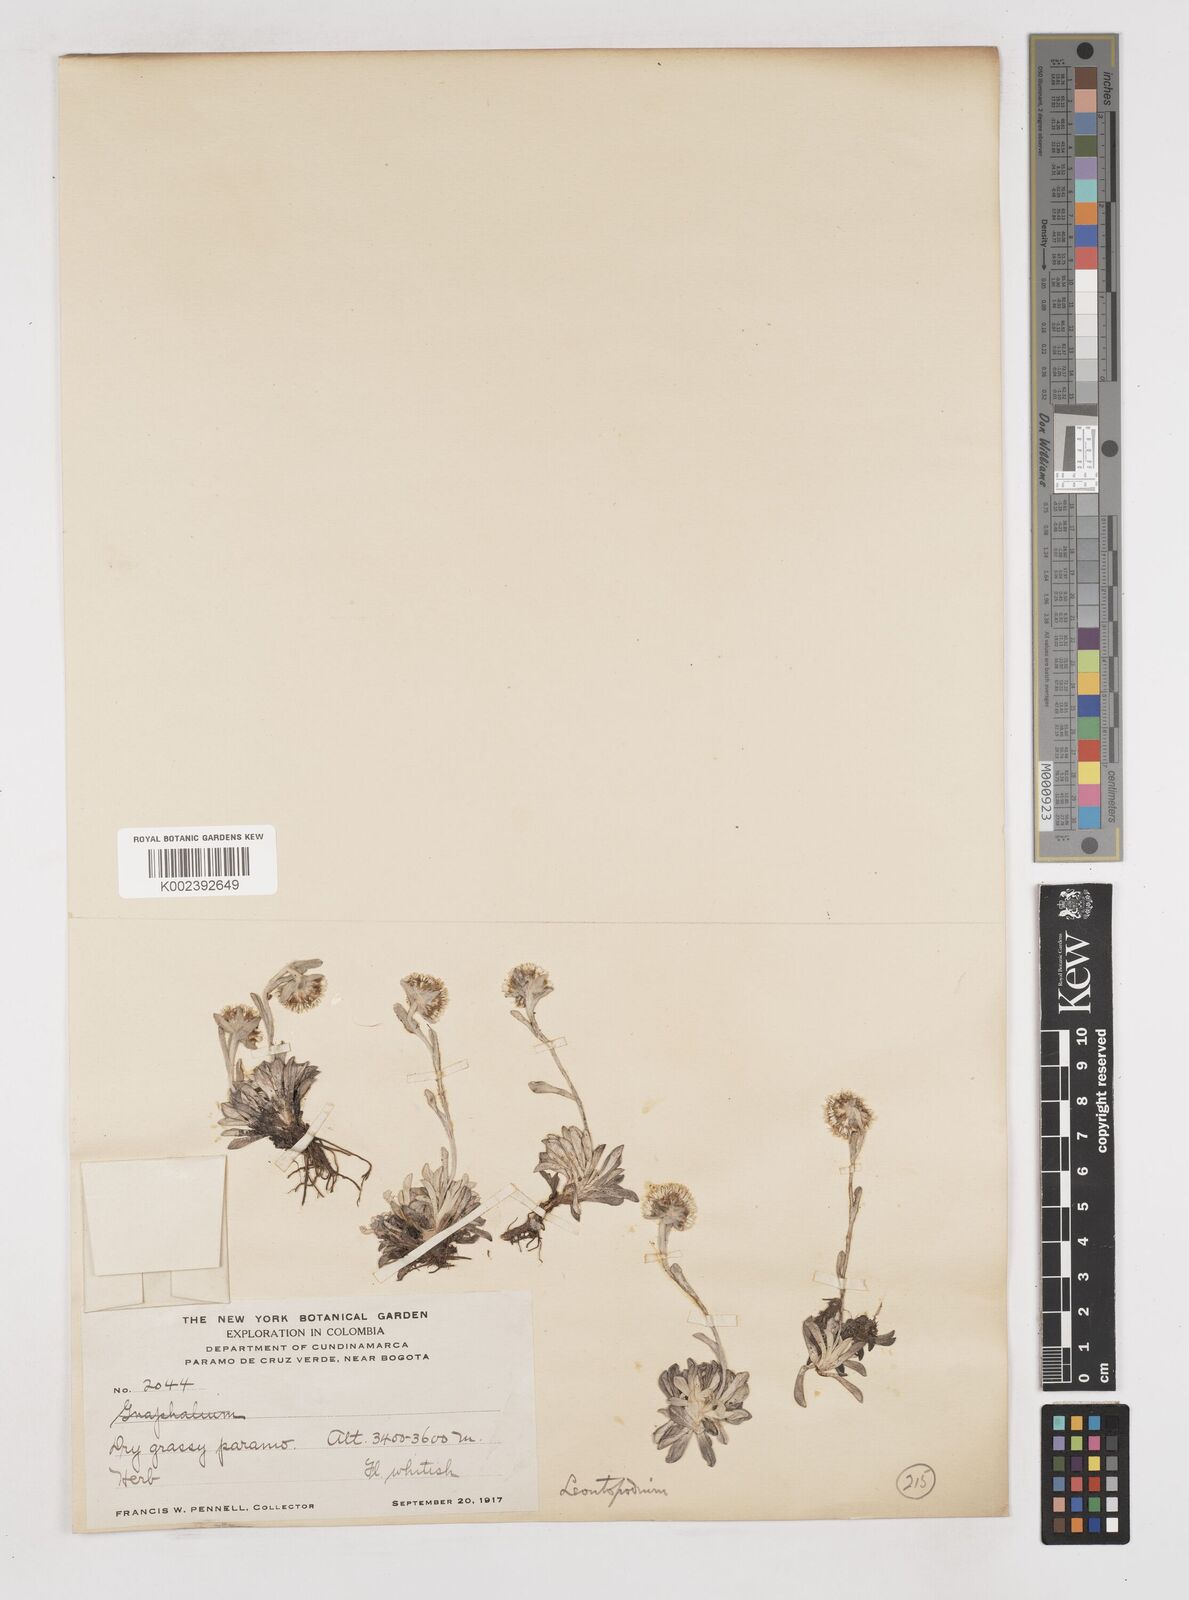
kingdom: Plantae
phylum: Tracheophyta
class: Magnoliopsida
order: Asterales
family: Asteraceae
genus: Gnaphalium
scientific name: Gnaphalium
